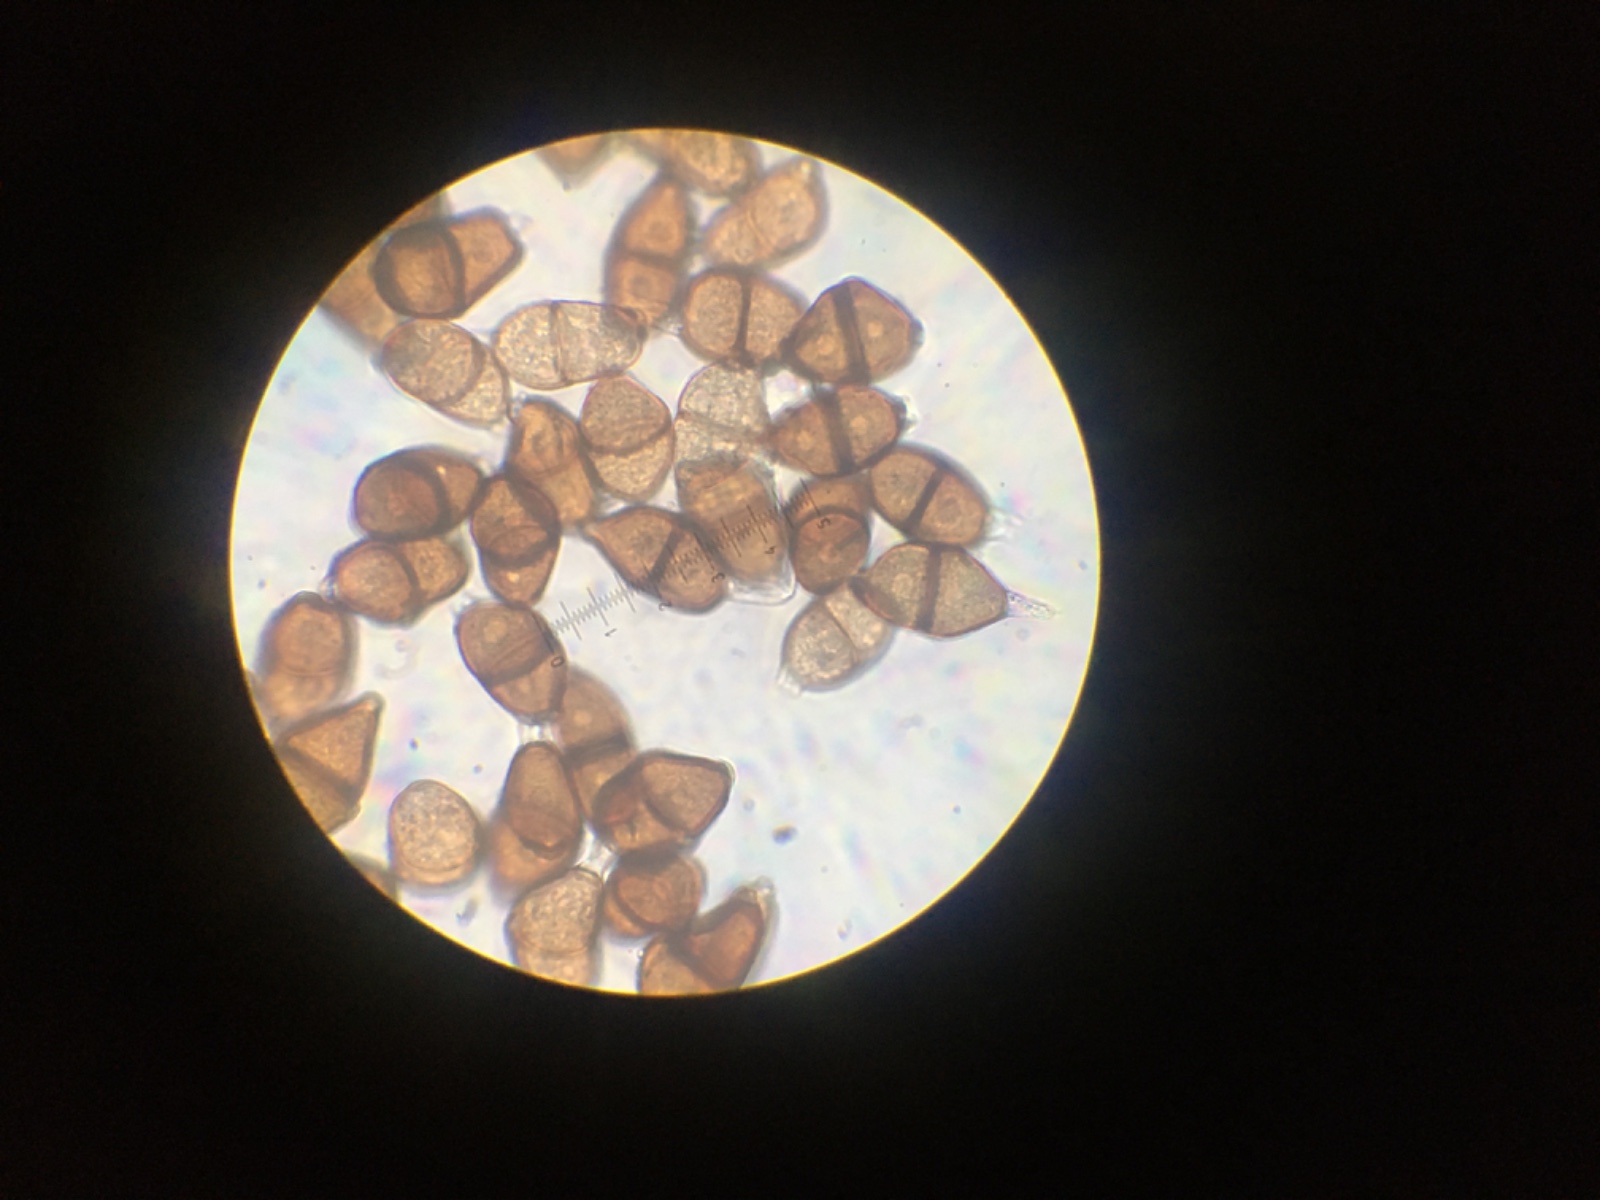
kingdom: Fungi
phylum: Basidiomycota
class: Pucciniomycetes
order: Pucciniales
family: Pucciniaceae
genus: Puccinia
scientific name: Puccinia
